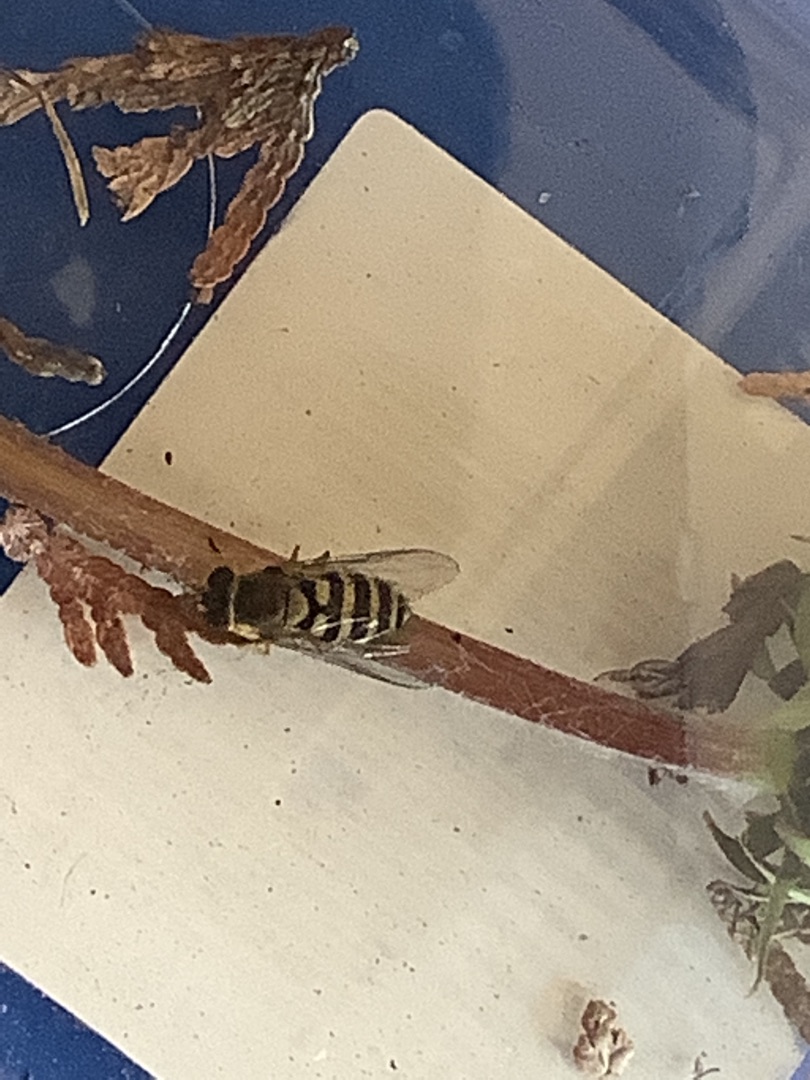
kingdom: Animalia
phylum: Arthropoda
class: Insecta
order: Diptera
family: Syrphidae
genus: Syrphus
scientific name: Syrphus
